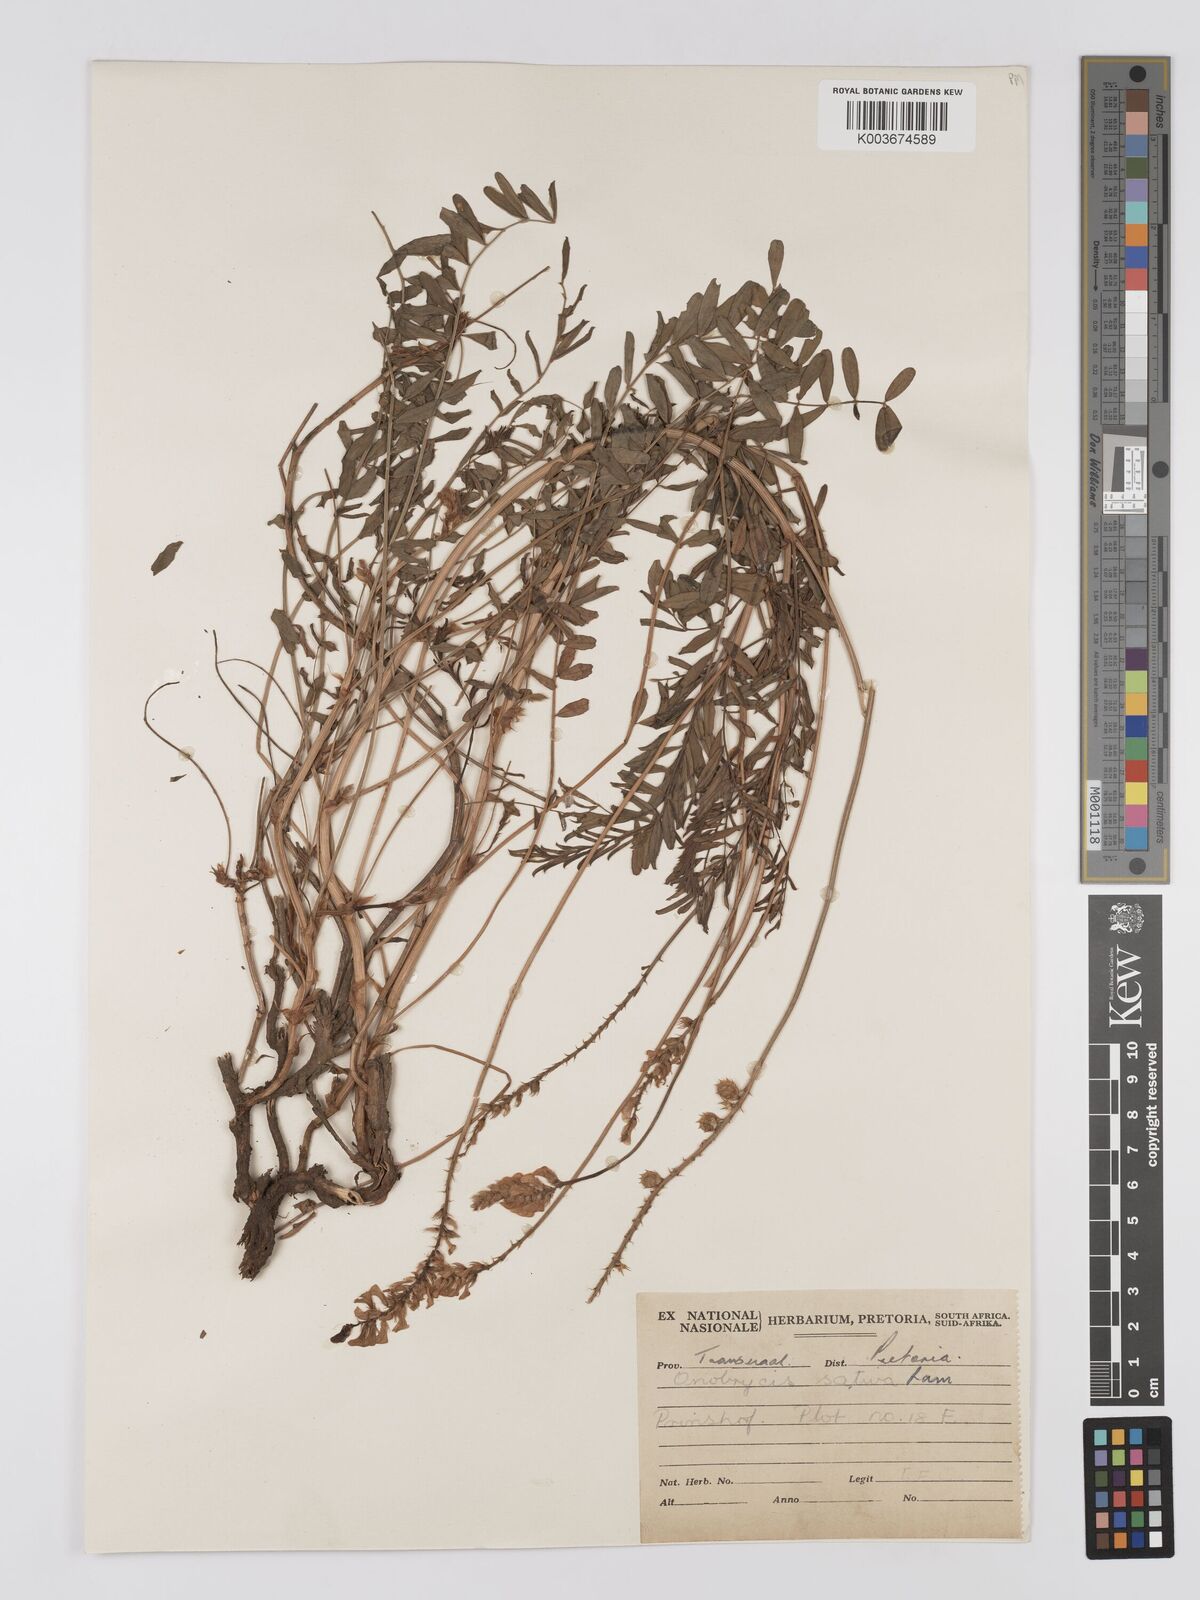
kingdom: Plantae
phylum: Tracheophyta
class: Magnoliopsida
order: Fabales
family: Fabaceae
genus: Onobrychis
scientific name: Onobrychis viciifolia
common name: Sainfoin
